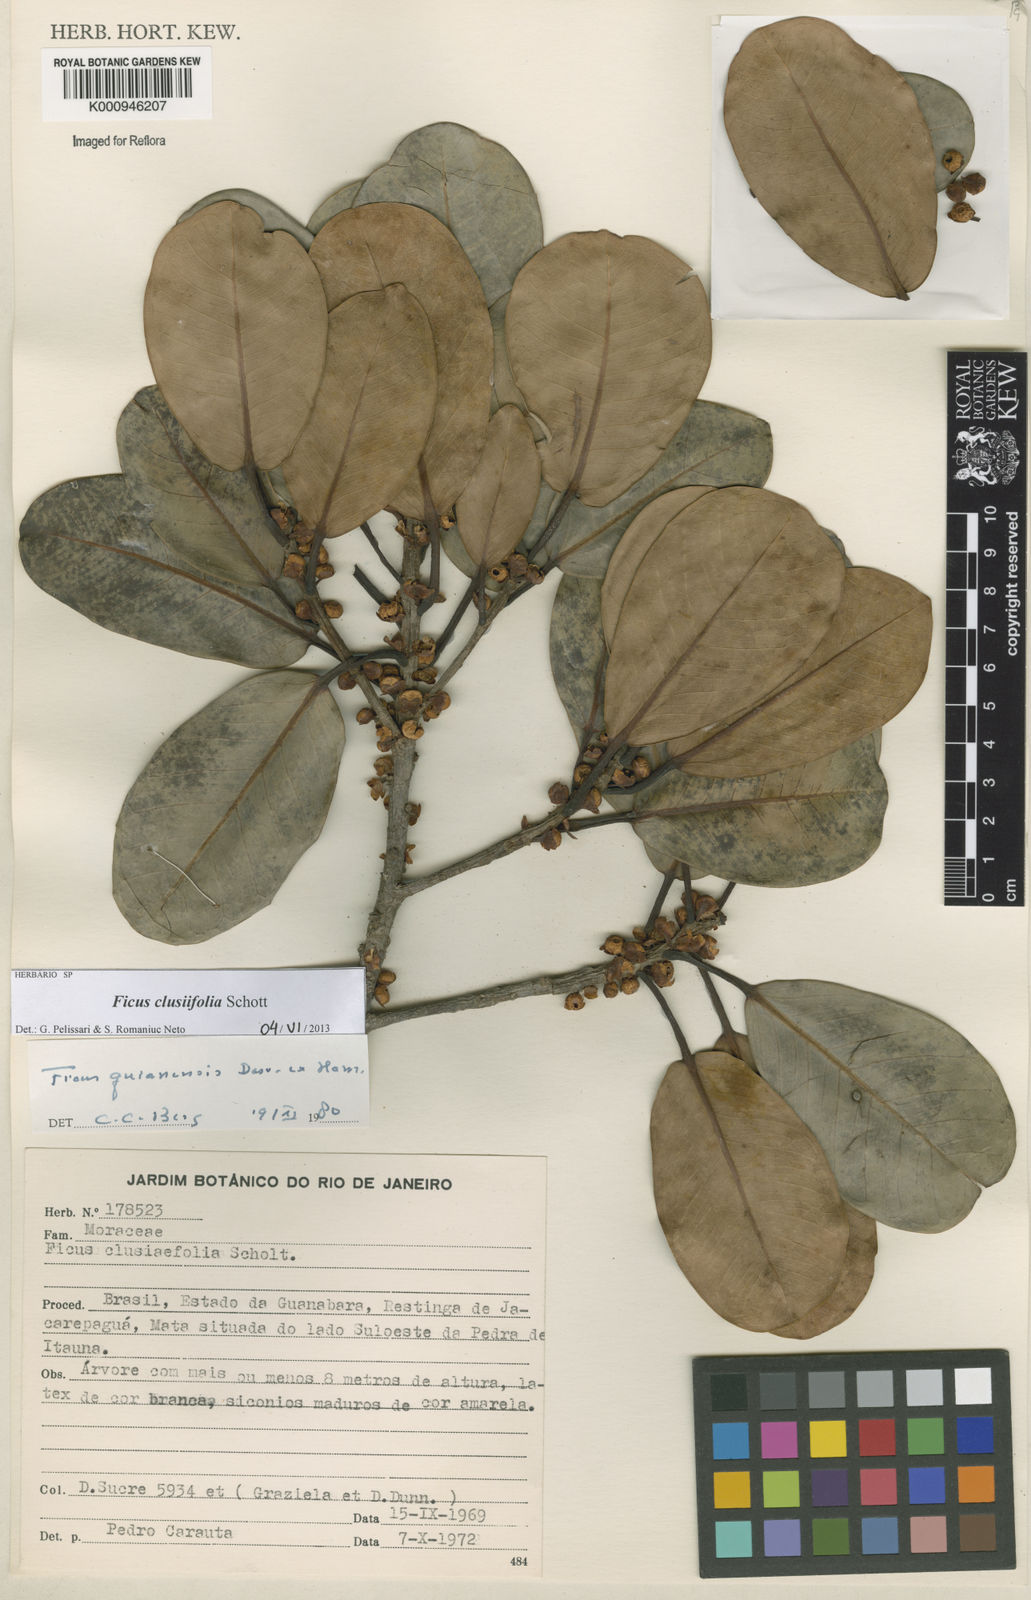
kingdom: Plantae
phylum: Tracheophyta
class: Magnoliopsida
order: Rosales
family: Moraceae
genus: Ficus
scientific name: Ficus americana
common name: Jamaican cherry fig
